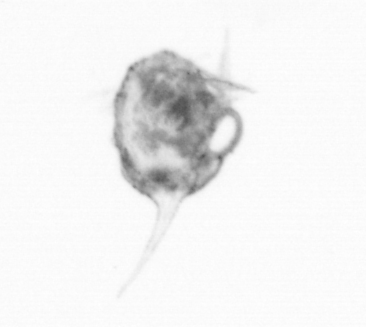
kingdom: Animalia
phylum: Arthropoda
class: Copepoda
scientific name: Copepoda
